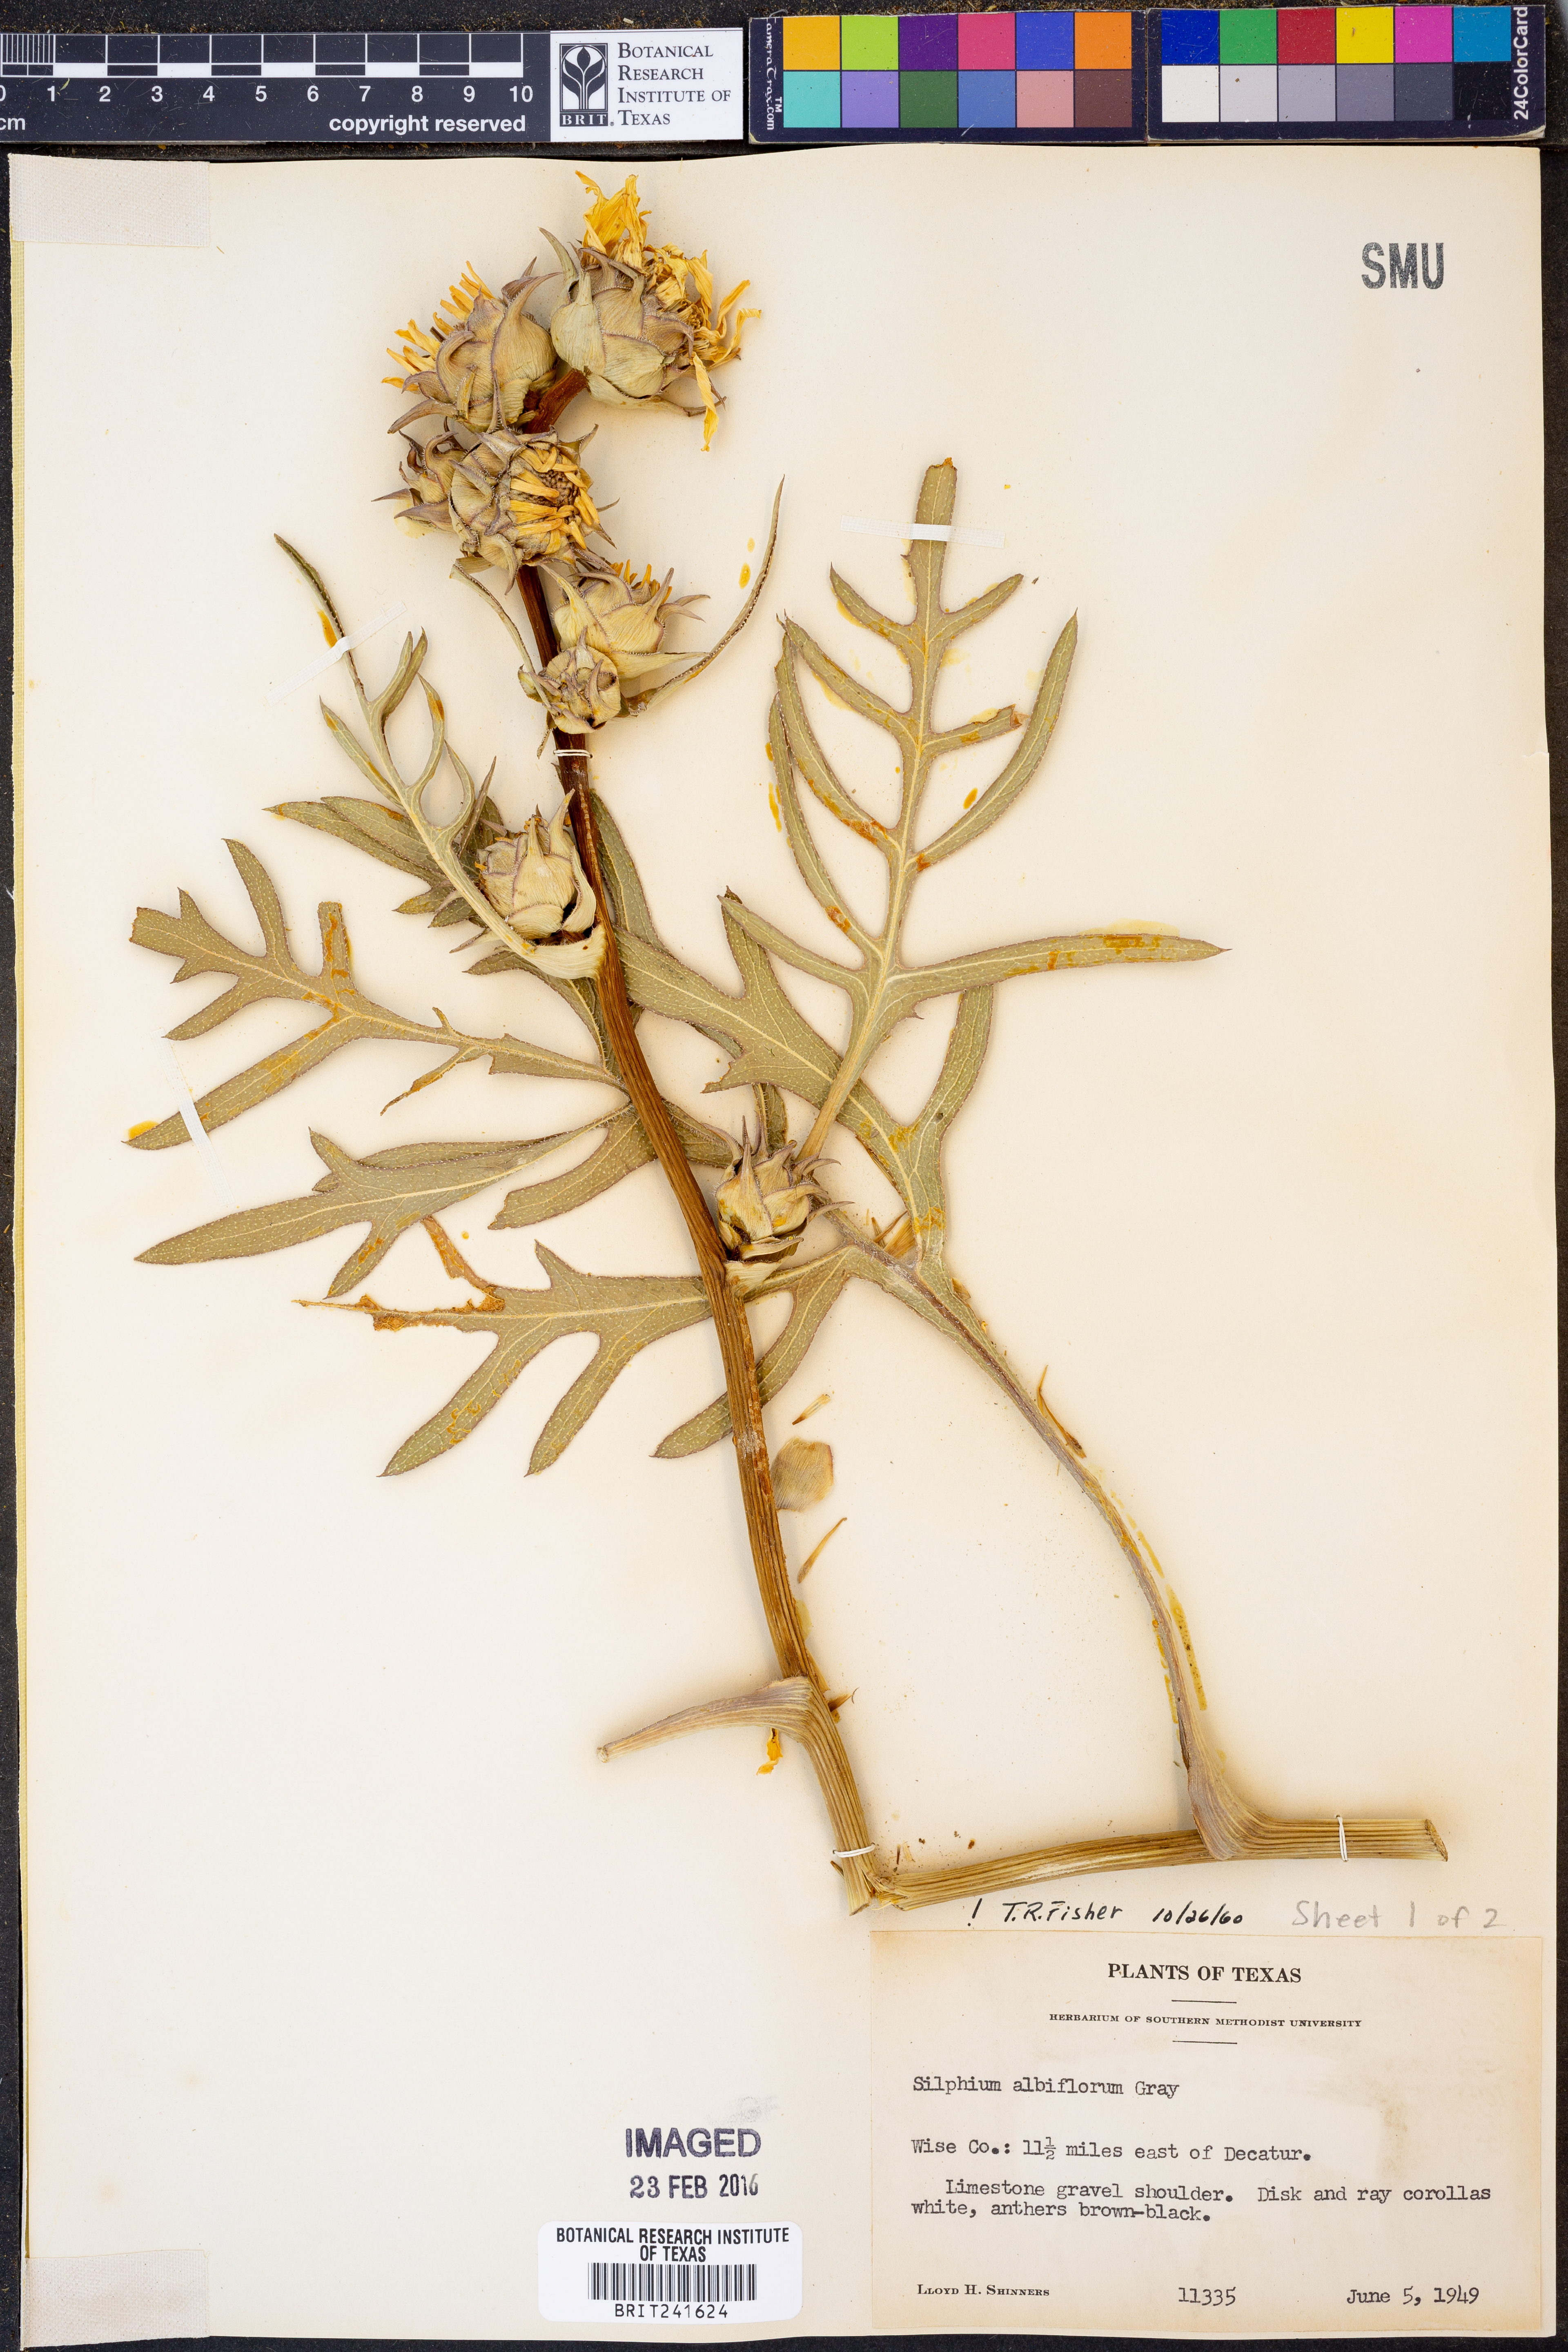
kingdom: Plantae
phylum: Tracheophyta
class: Magnoliopsida
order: Asterales
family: Asteraceae
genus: Silphium
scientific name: Silphium albiflorum
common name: White rosinweed
